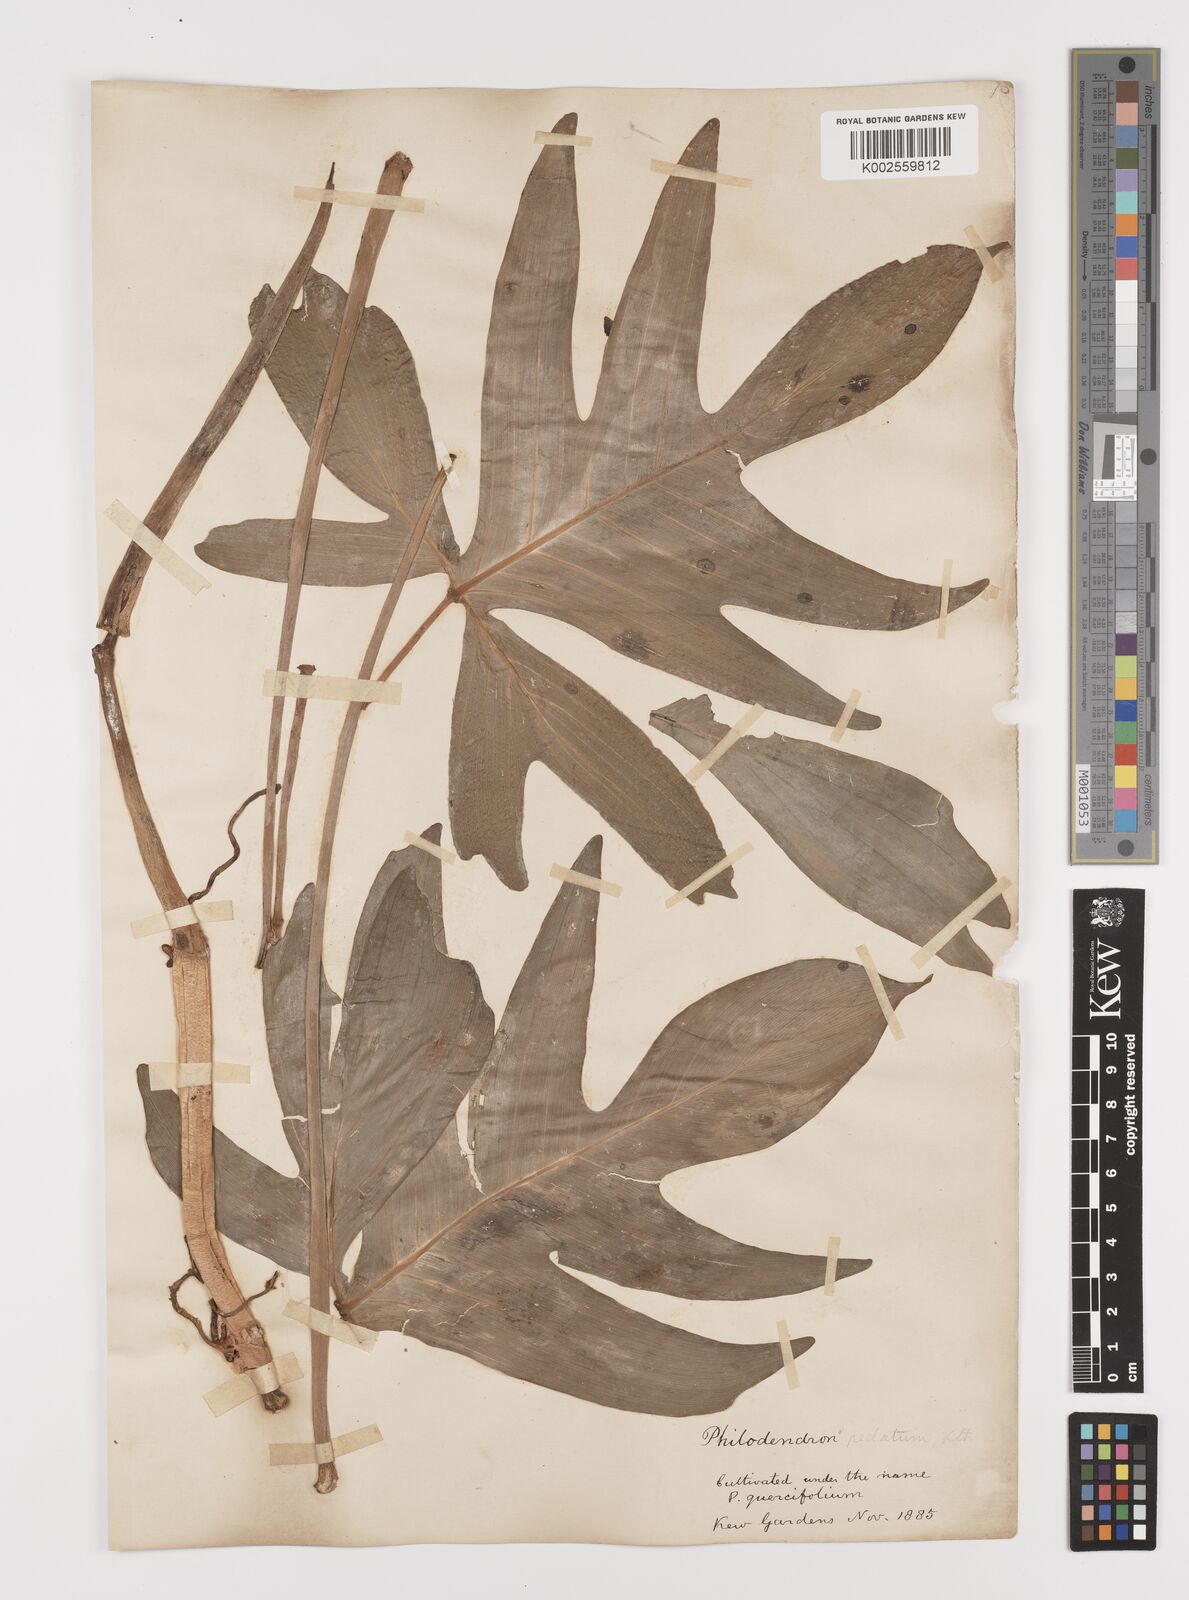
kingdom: Plantae
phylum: Tracheophyta
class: Liliopsida
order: Alismatales
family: Araceae
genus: Philodendron
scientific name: Philodendron pedatum
